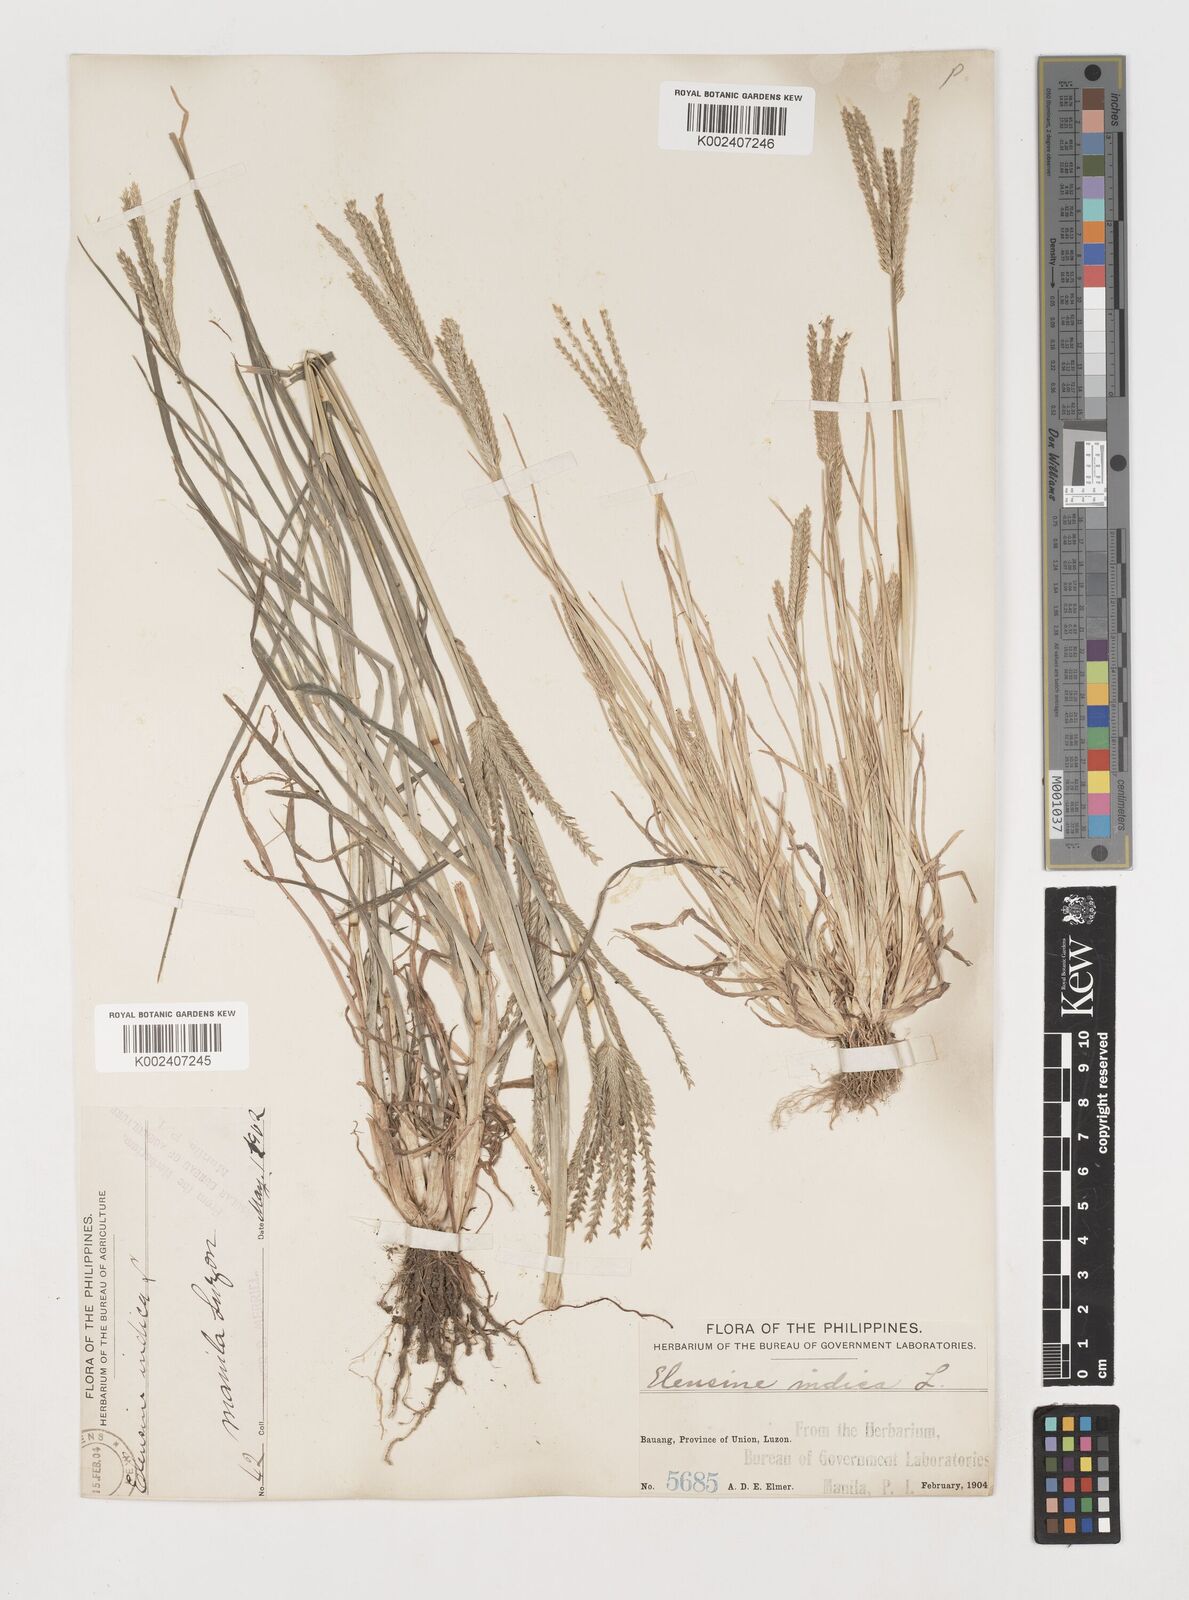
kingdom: Plantae
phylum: Tracheophyta
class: Liliopsida
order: Poales
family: Poaceae
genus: Eleusine
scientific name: Eleusine indica
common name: Yard-grass
